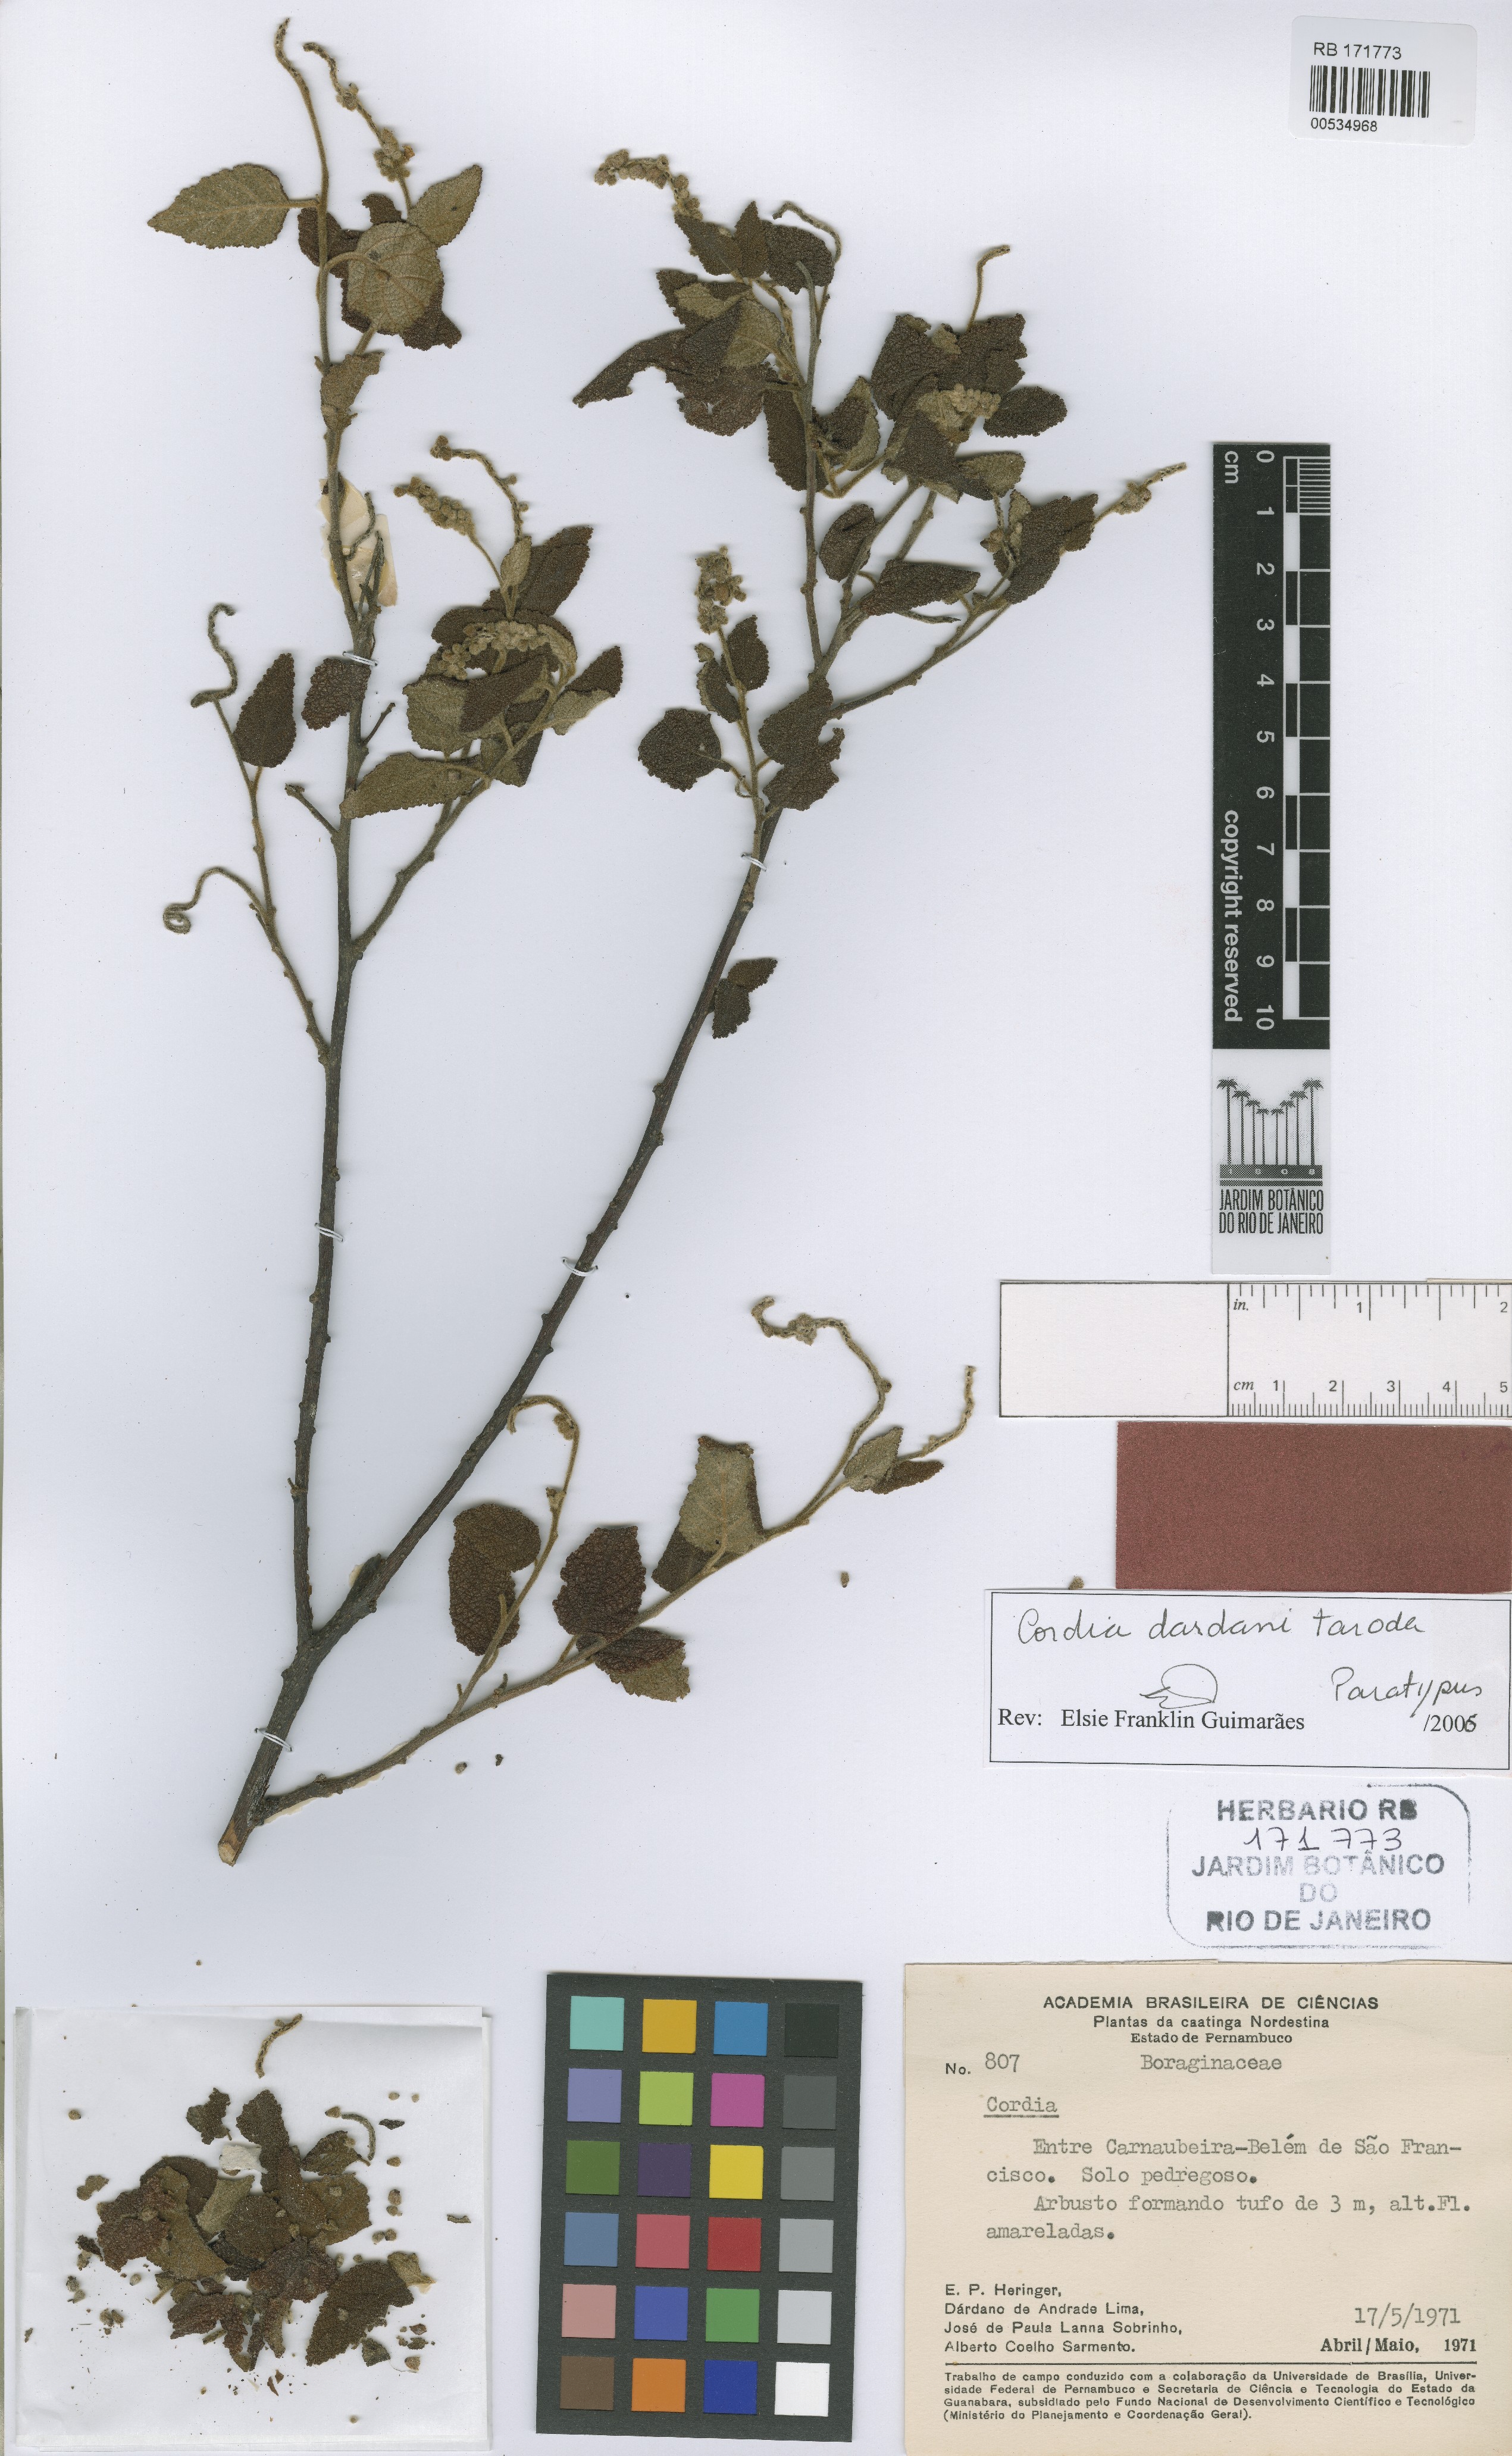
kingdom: Plantae
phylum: Tracheophyta
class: Magnoliopsida
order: Boraginales
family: Cordiaceae
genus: Varronia
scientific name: Varronia dardani
